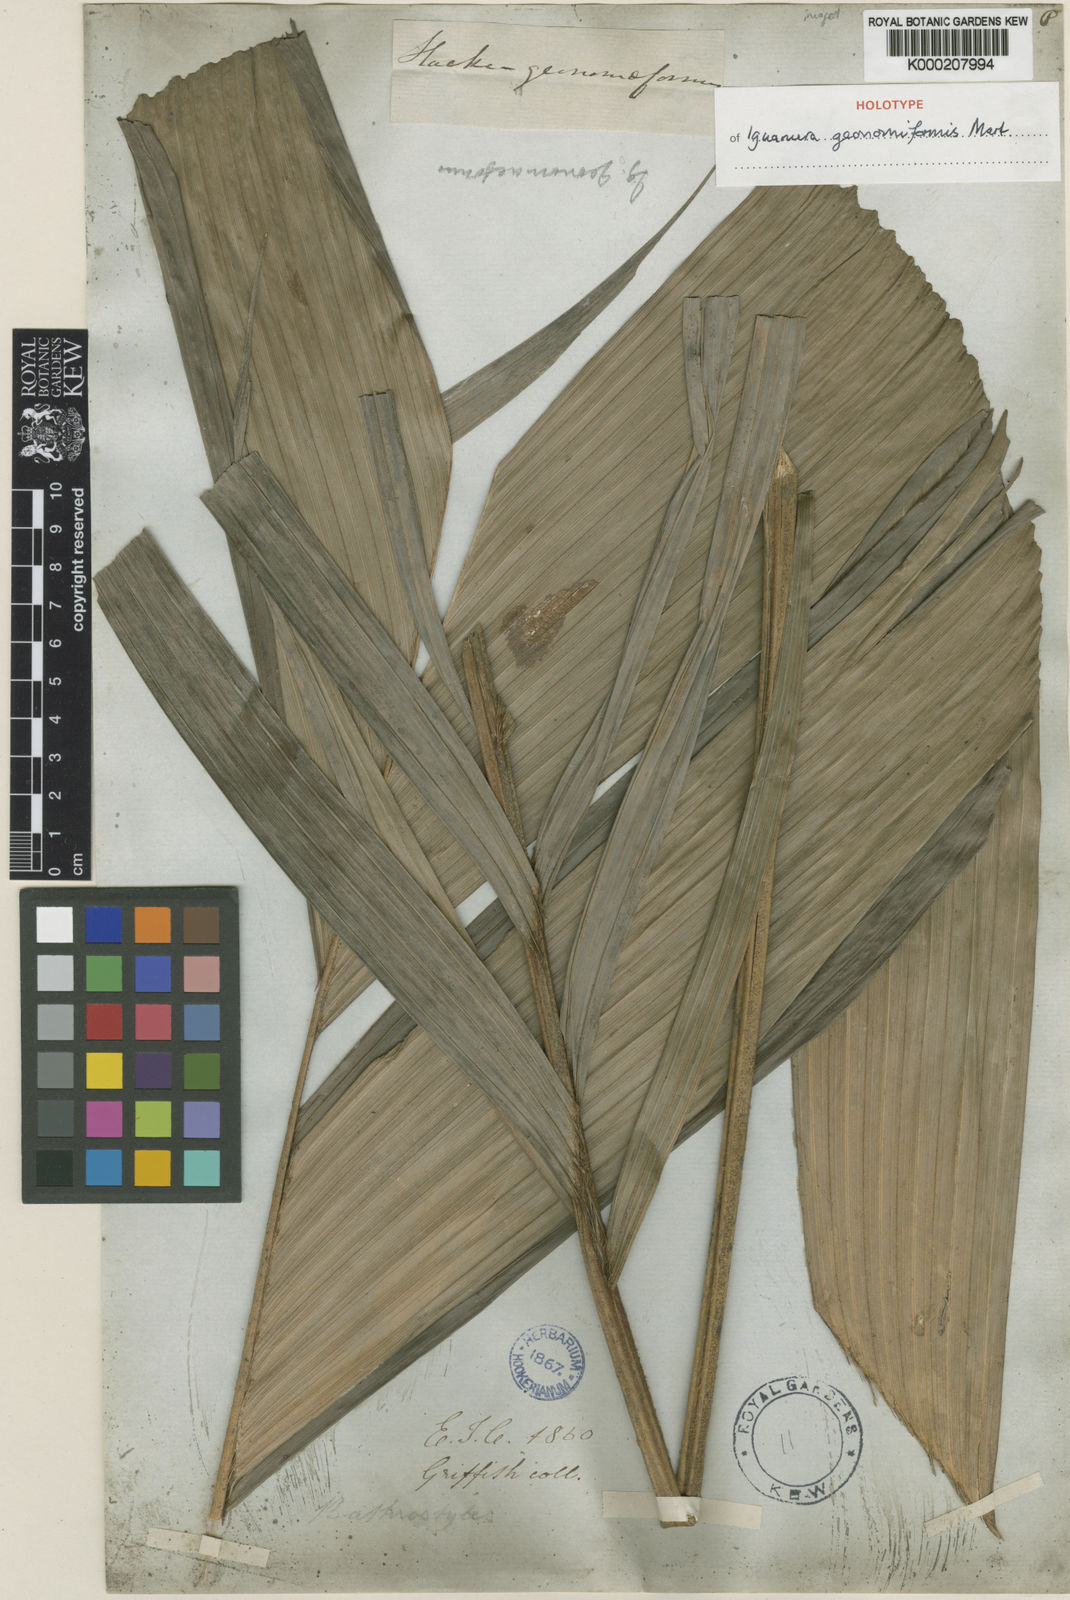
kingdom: Plantae
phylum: Tracheophyta
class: Liliopsida
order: Arecales
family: Arecaceae
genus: Iguanura
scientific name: Iguanura geonomiformis
